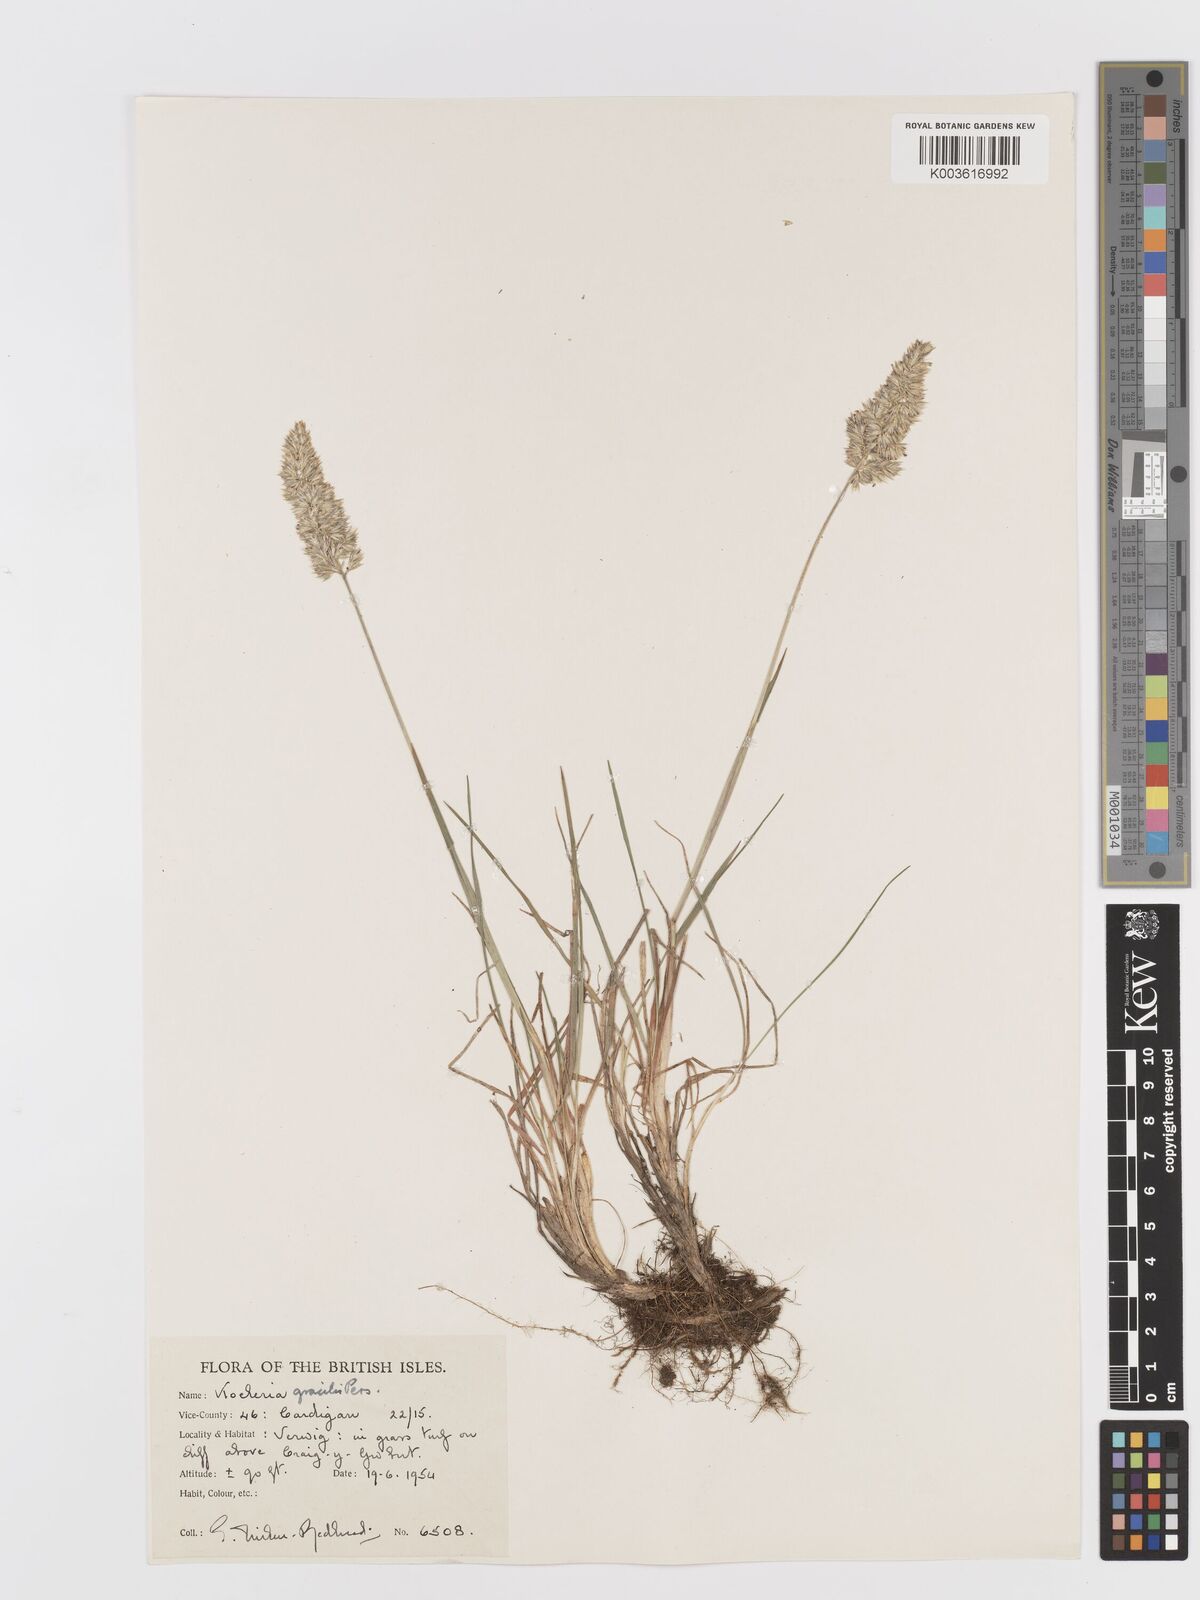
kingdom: Plantae
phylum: Tracheophyta
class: Liliopsida
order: Poales
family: Poaceae
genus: Koeleria
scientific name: Koeleria macrantha
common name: Crested hair-grass
